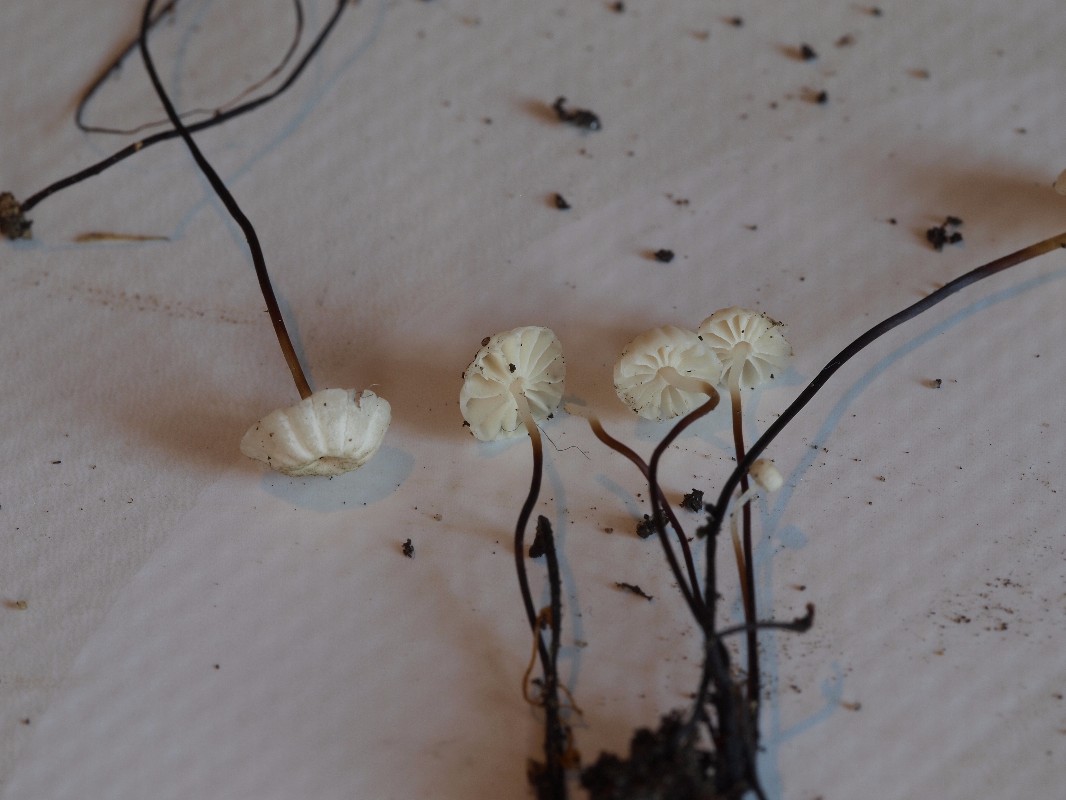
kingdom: Fungi
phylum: Basidiomycota
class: Agaricomycetes
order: Agaricales
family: Marasmiaceae
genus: Marasmius
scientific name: Marasmius rotula
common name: hjul-bruskhat
